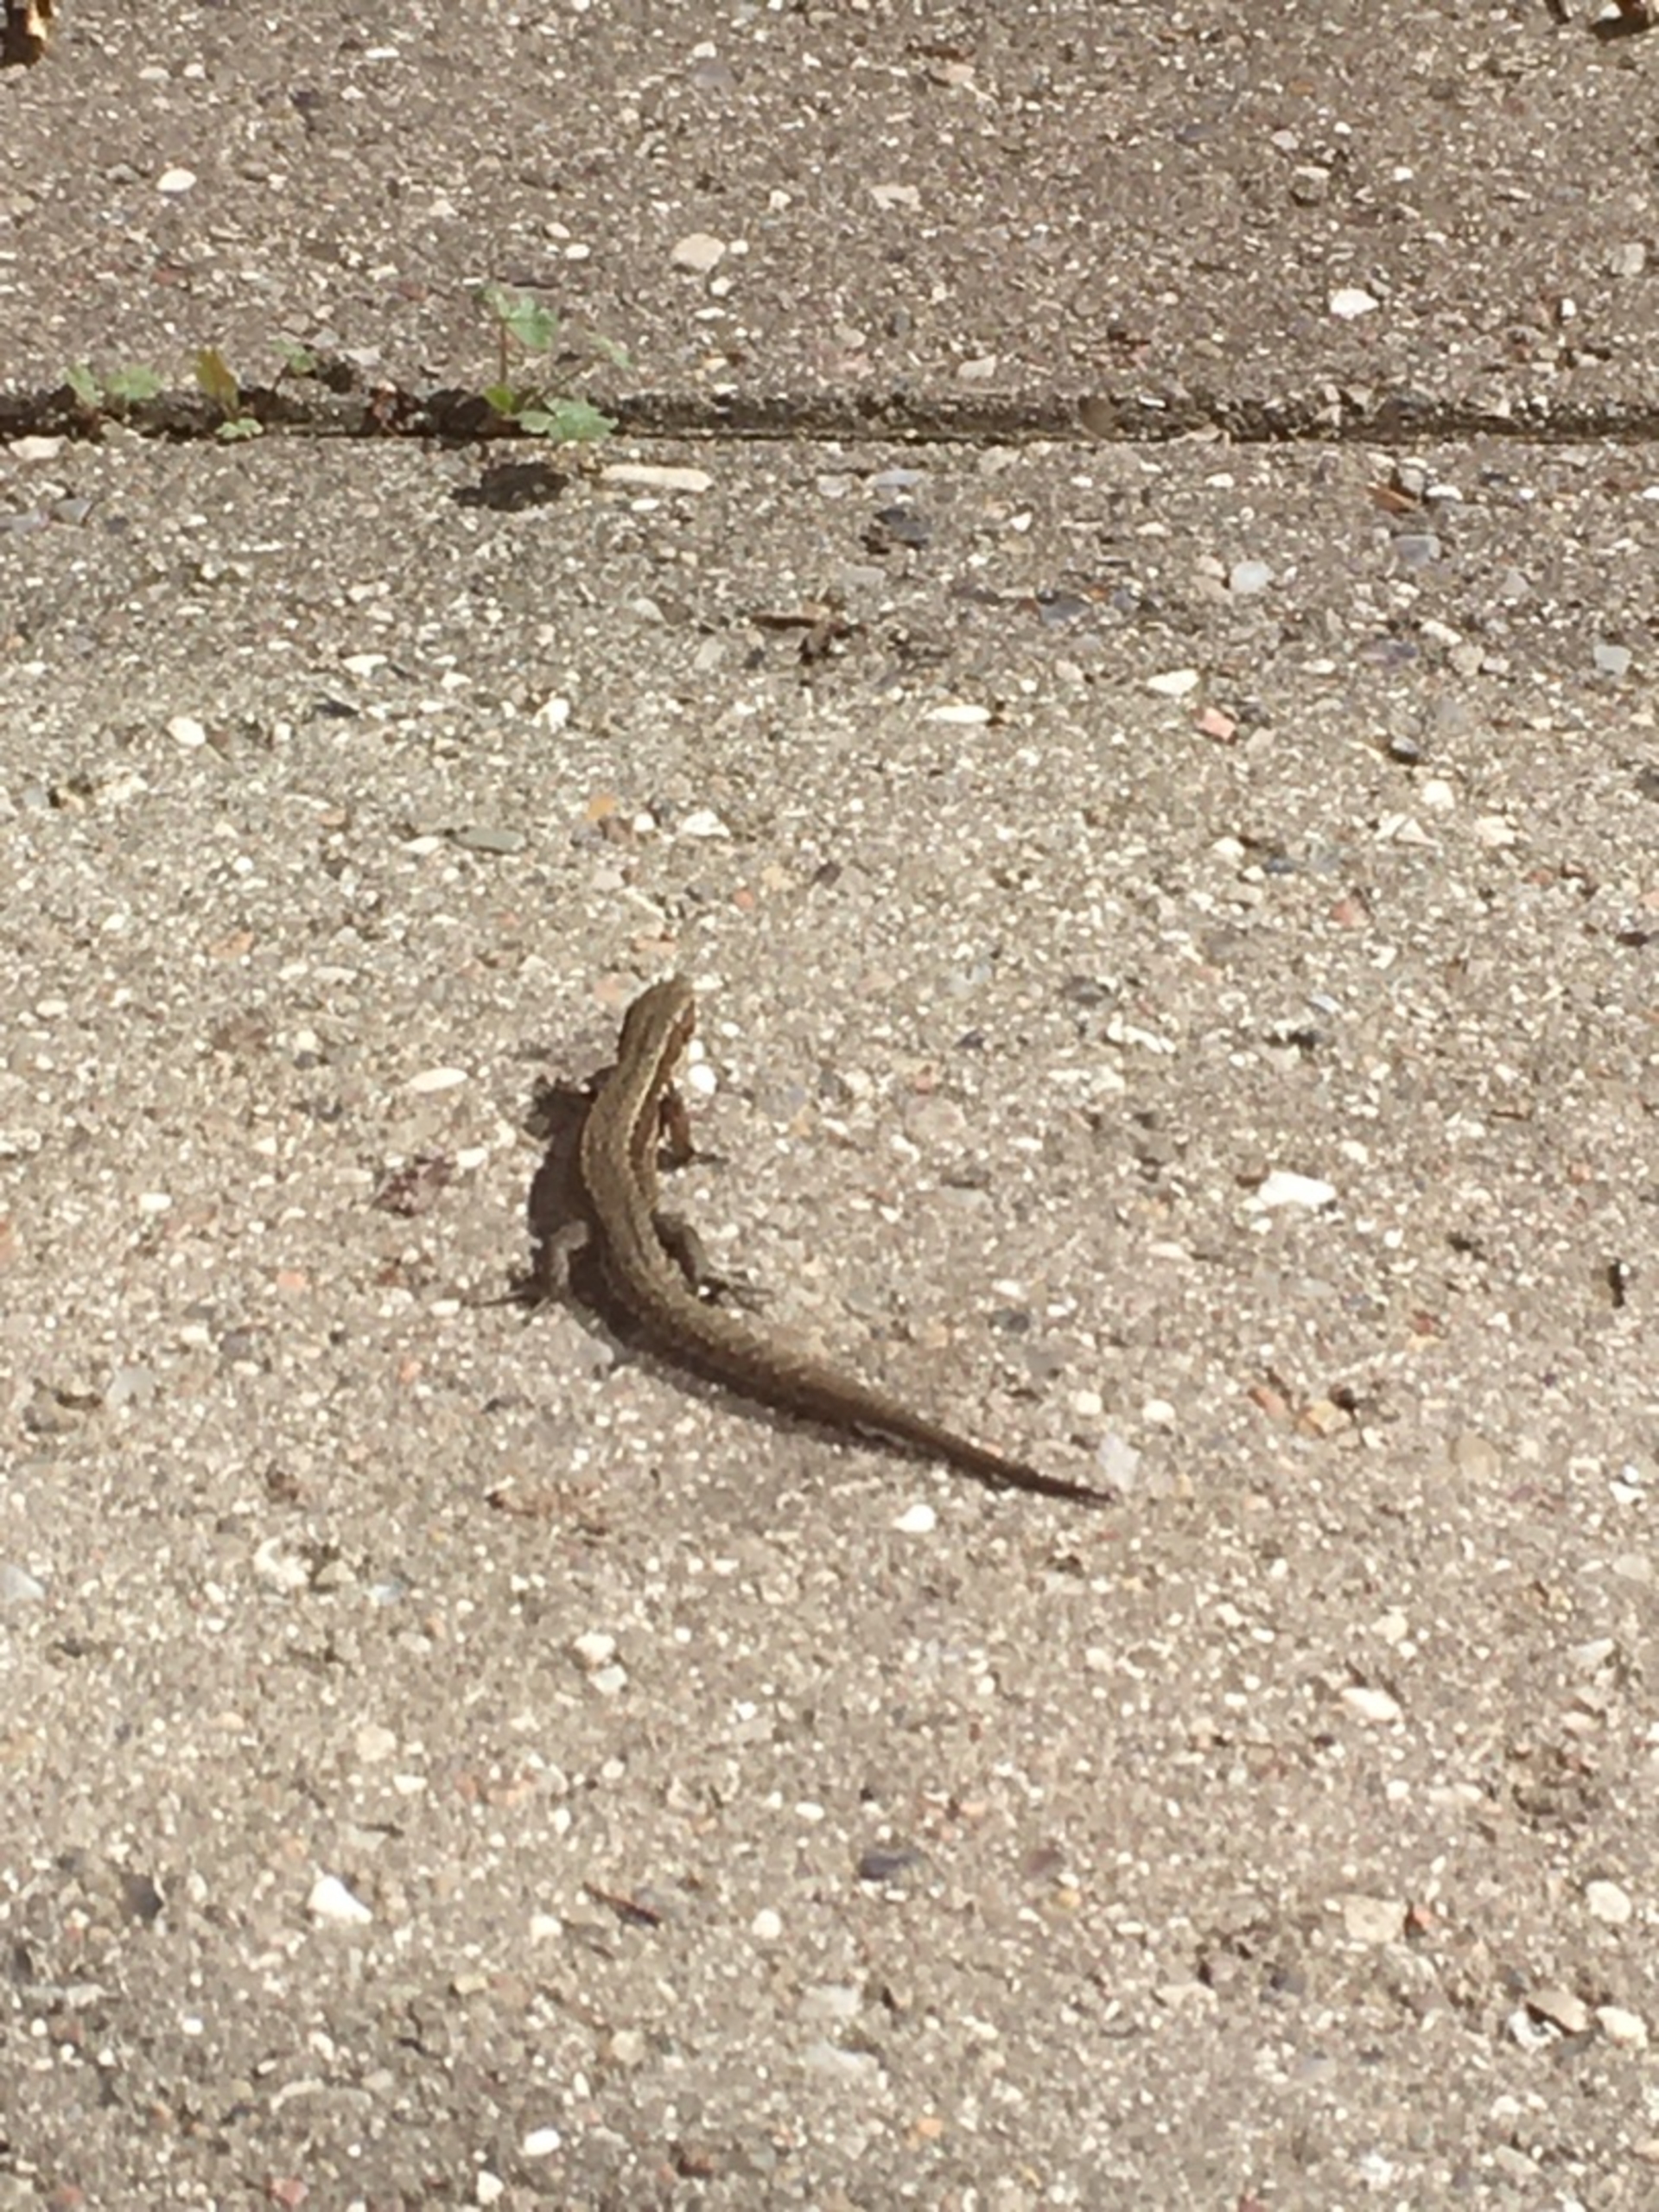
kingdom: Animalia
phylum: Chordata
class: Squamata
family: Lacertidae
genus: Zootoca
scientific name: Zootoca vivipara
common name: Skovfirben
